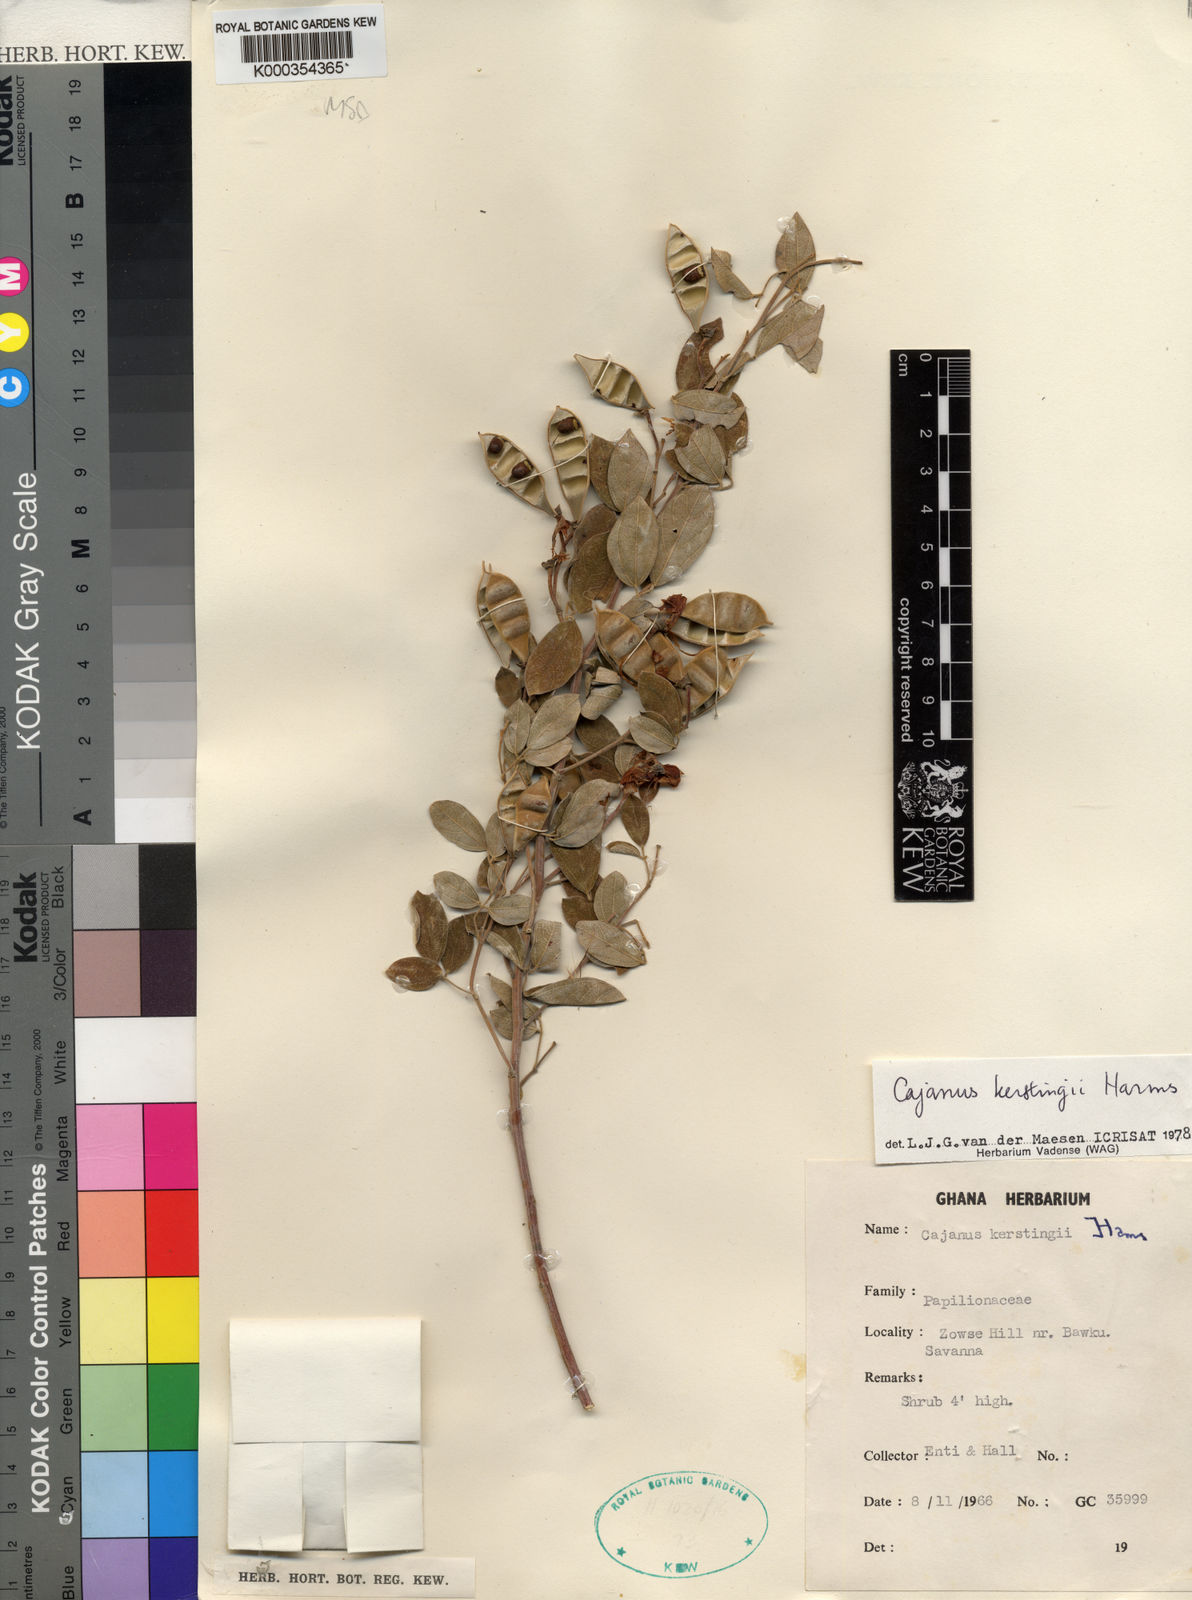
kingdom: Plantae
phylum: Tracheophyta
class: Magnoliopsida
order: Fabales
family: Fabaceae
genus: Cajanus
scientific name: Cajanus kerstingii
